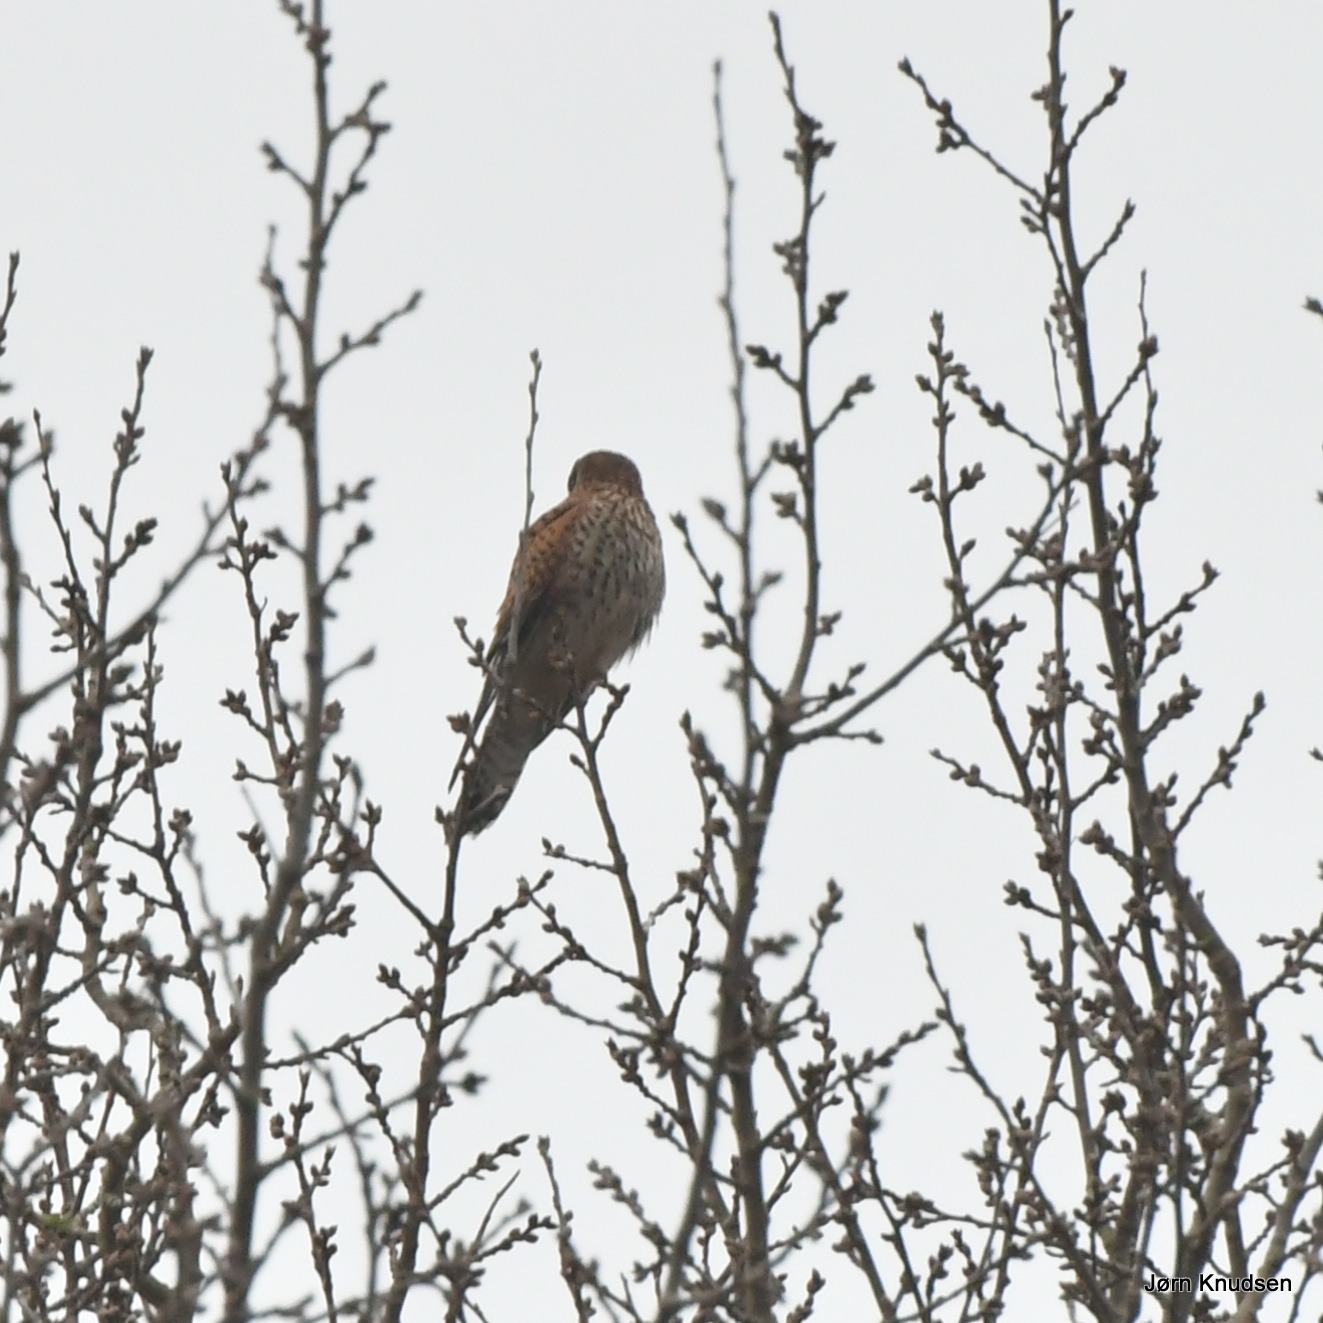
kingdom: Animalia
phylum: Chordata
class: Aves
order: Falconiformes
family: Falconidae
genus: Falco
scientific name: Falco tinnunculus
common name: Tårnfalk
